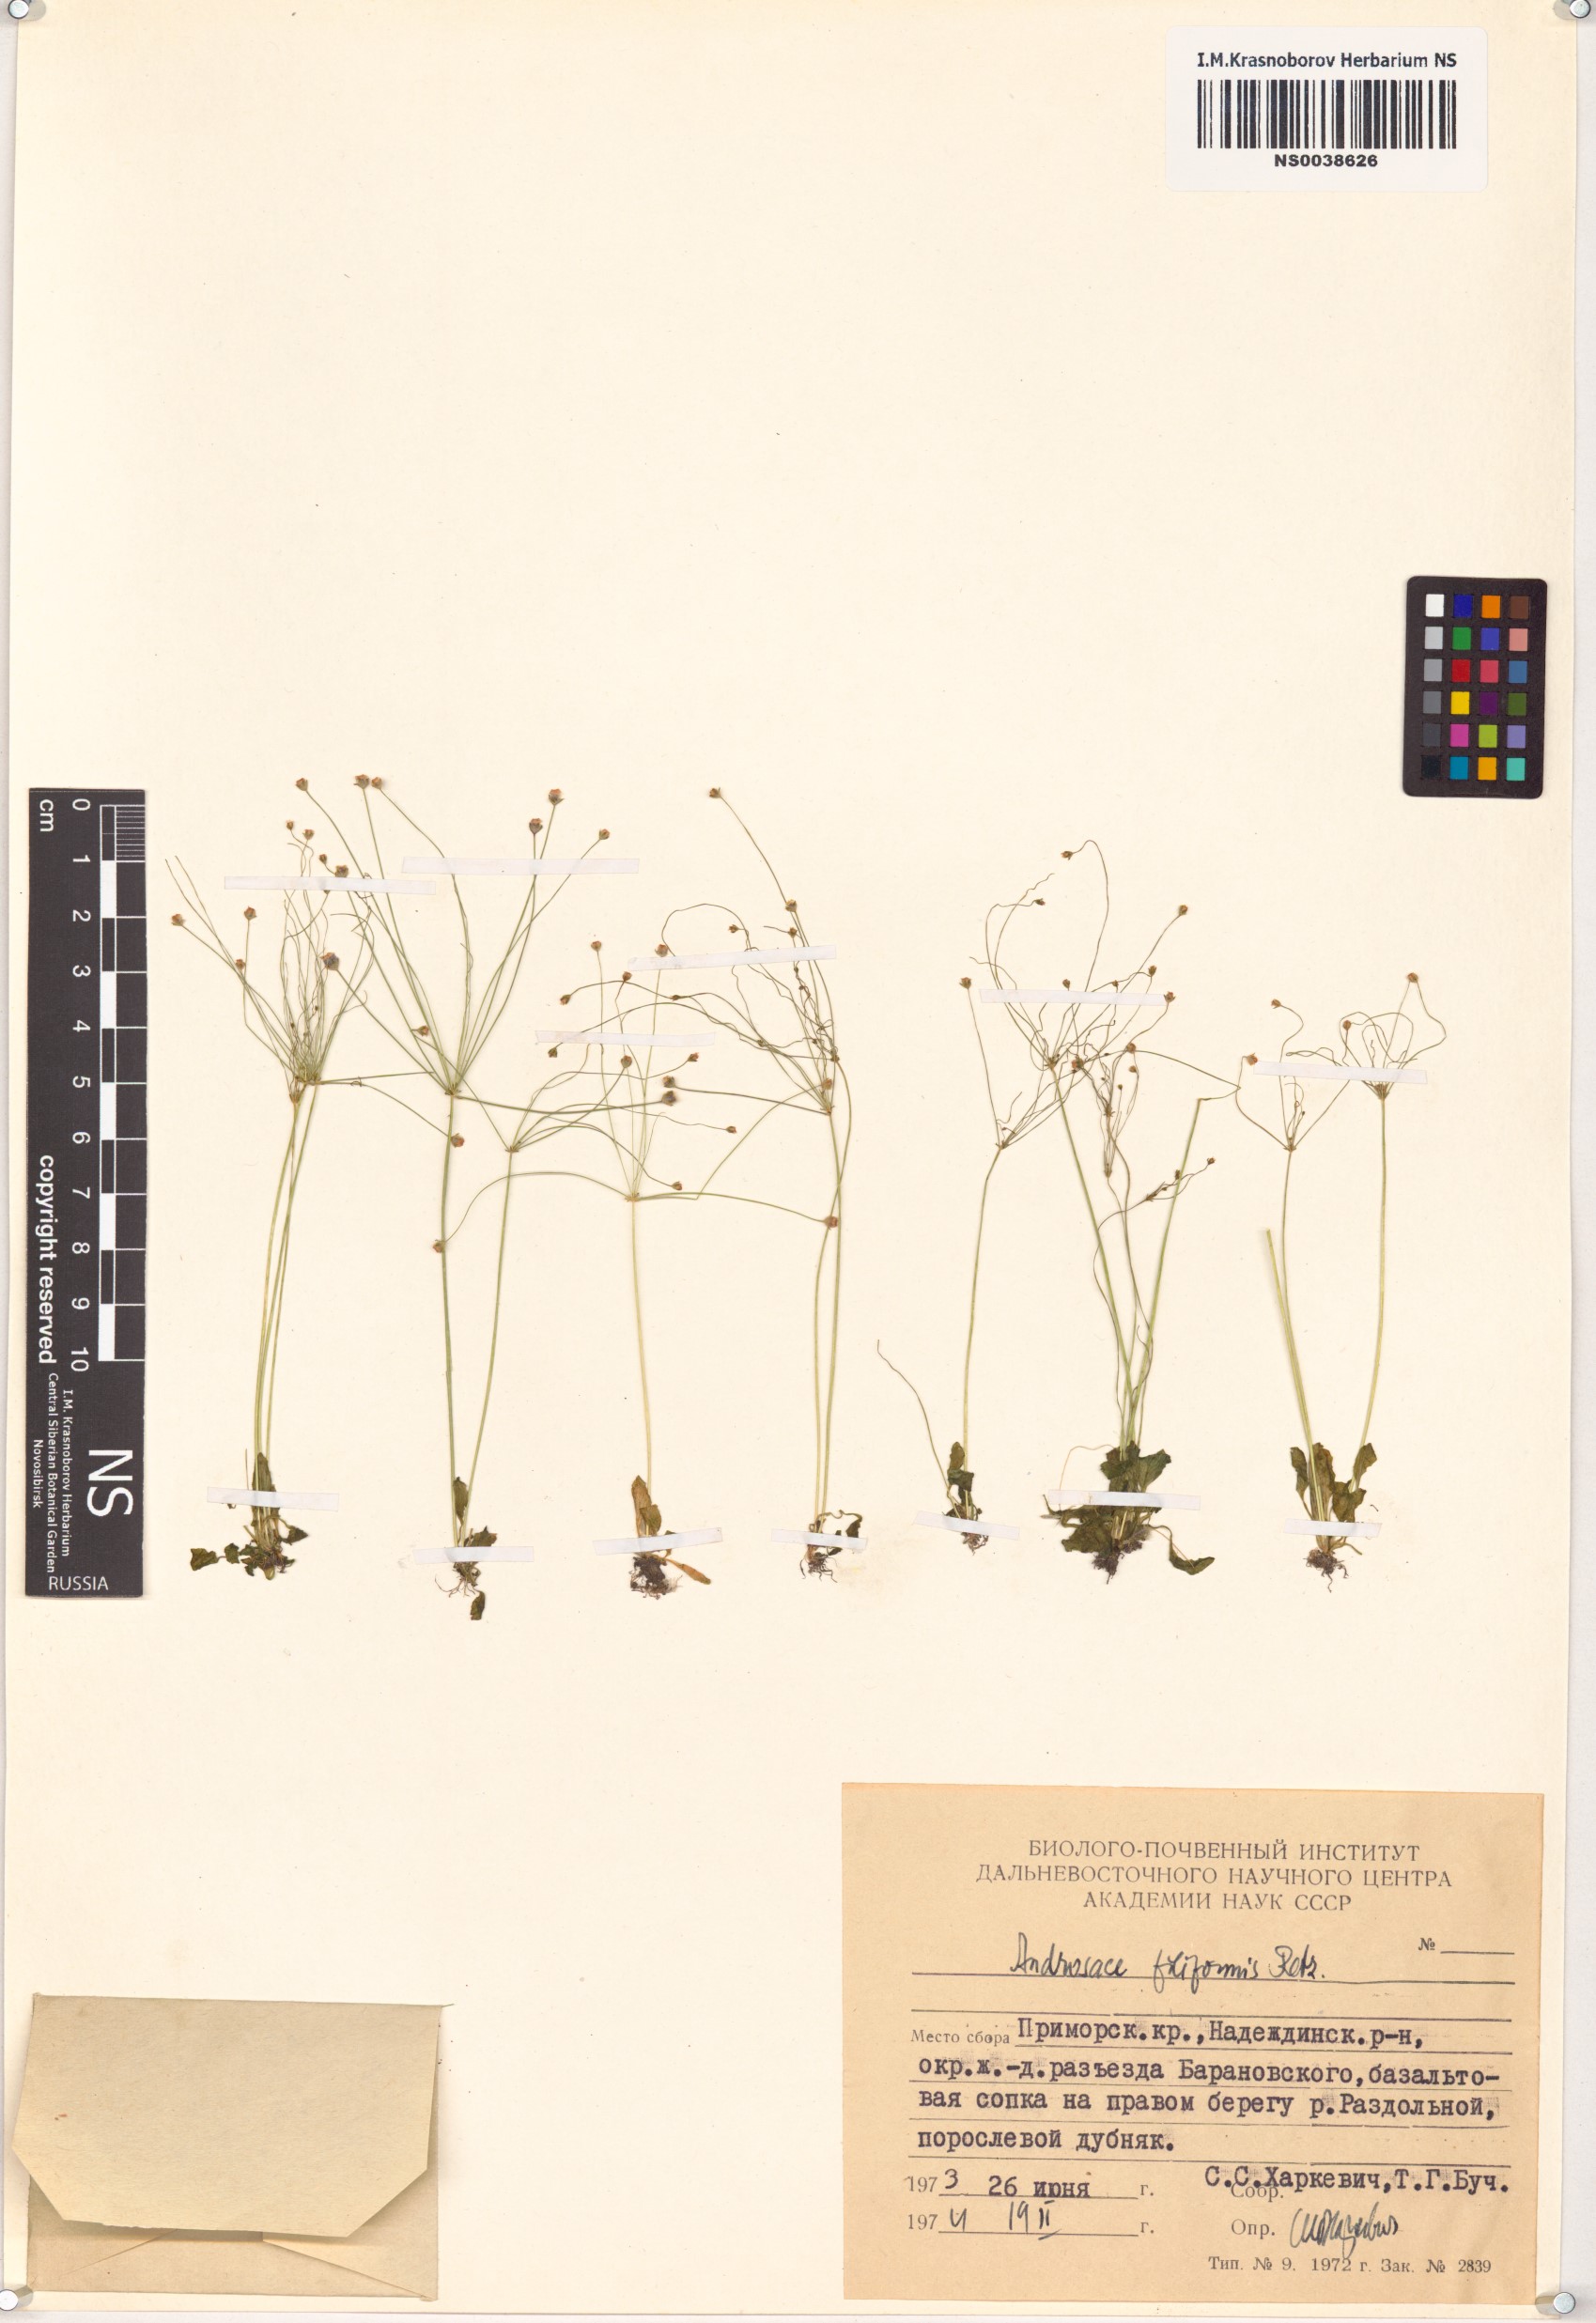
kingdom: Plantae
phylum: Tracheophyta
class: Magnoliopsida
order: Ericales
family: Primulaceae
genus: Androsace
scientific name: Androsace filiformis
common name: Filiform rock jasmine
